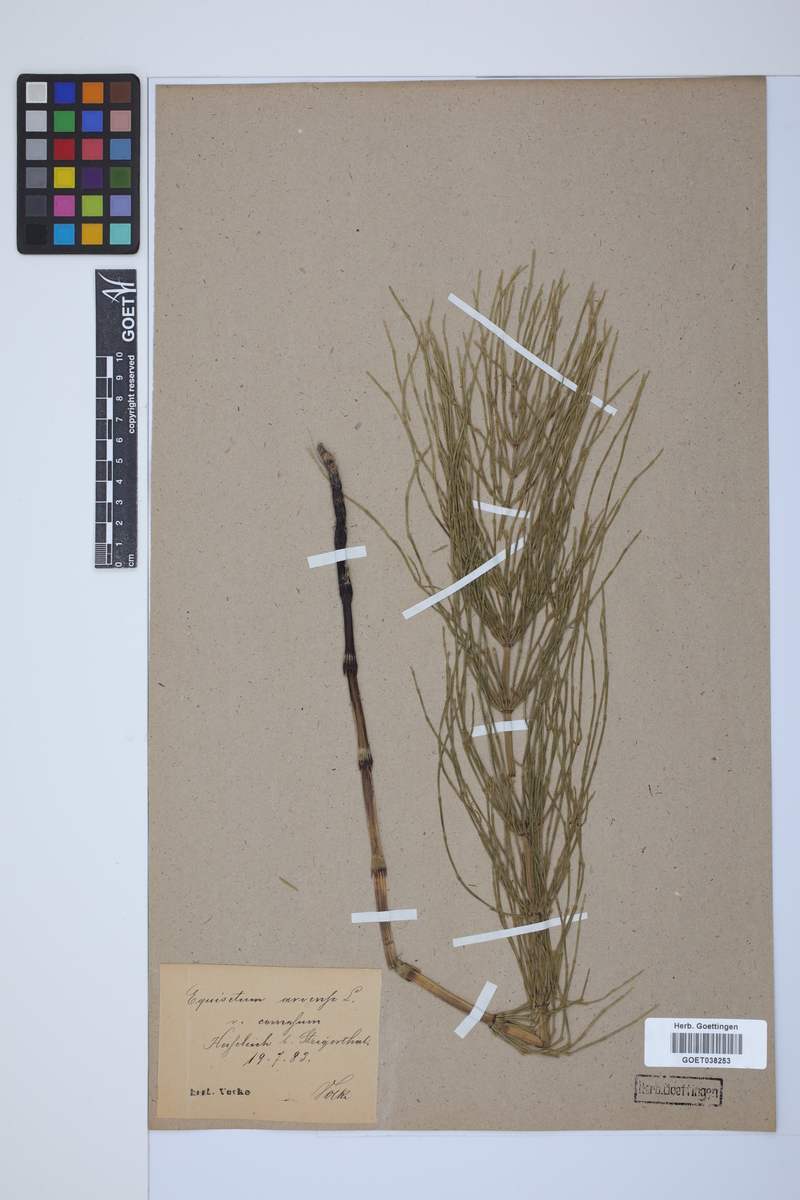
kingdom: Plantae
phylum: Tracheophyta
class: Polypodiopsida
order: Equisetales
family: Equisetaceae
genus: Equisetum
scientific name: Equisetum arvense
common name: Field horsetail
